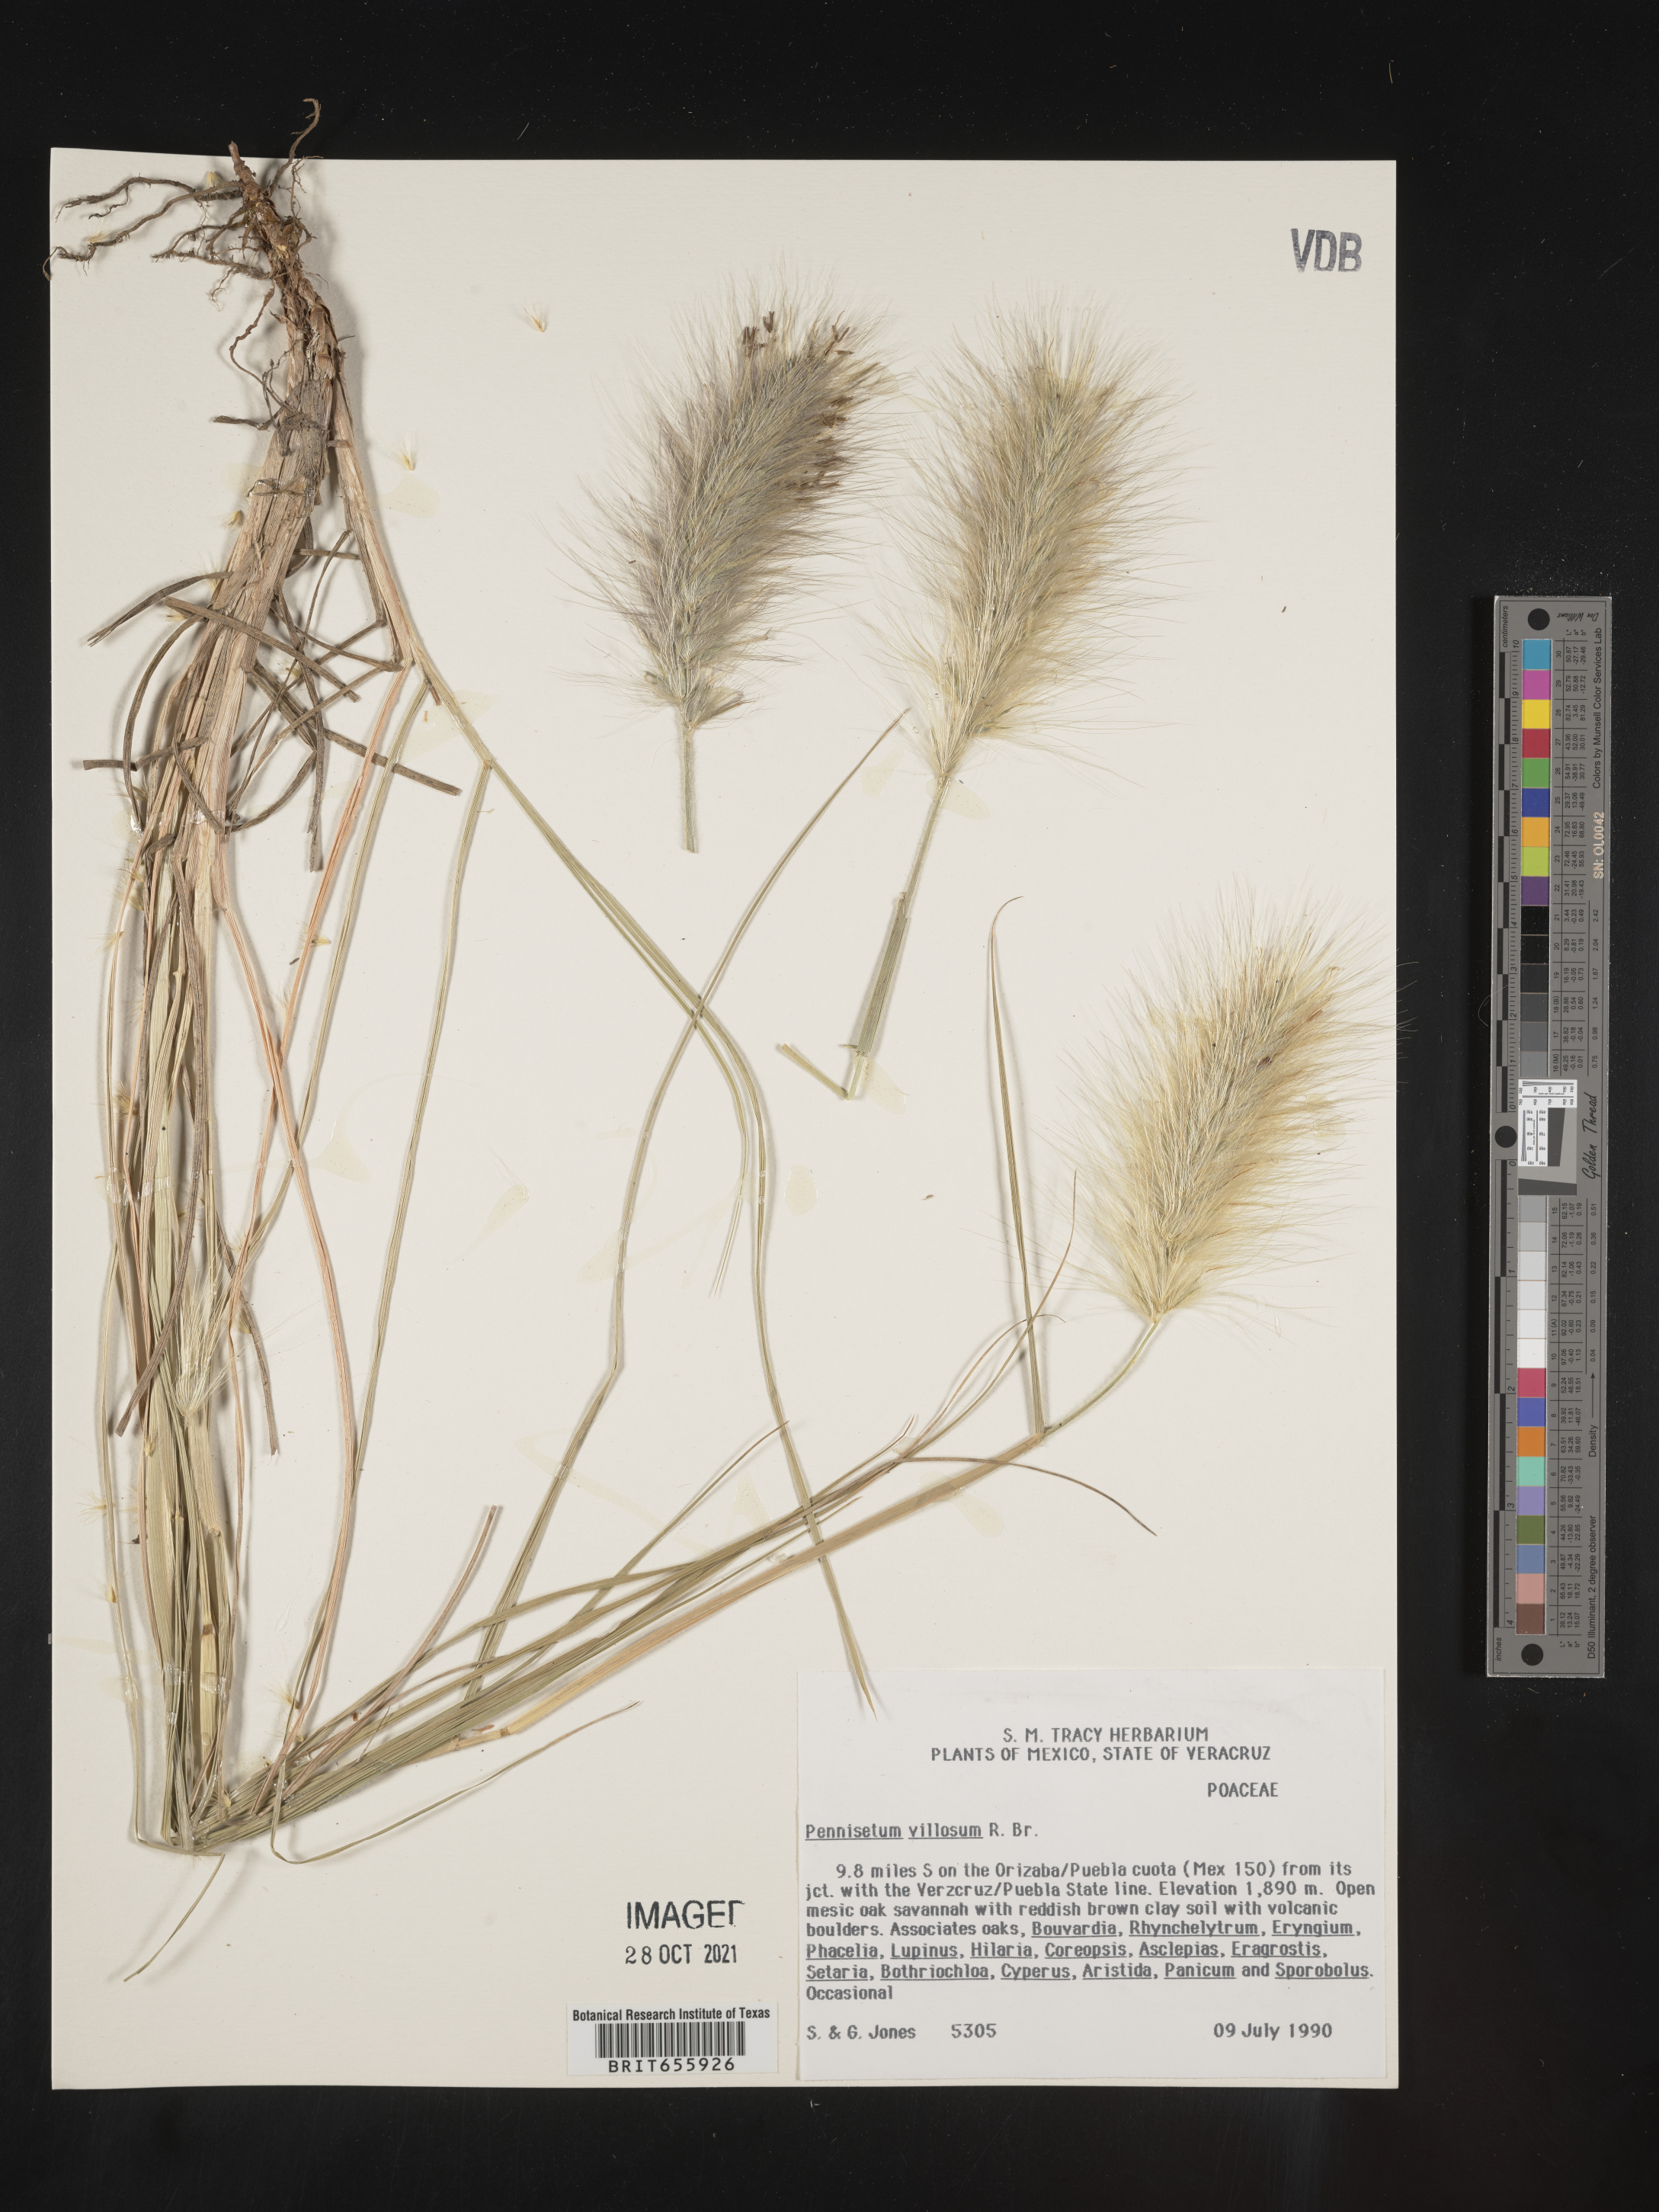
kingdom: Plantae
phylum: Tracheophyta
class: Liliopsida
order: Poales
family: Poaceae
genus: Cenchrus
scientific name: Cenchrus Pennisetum spec
